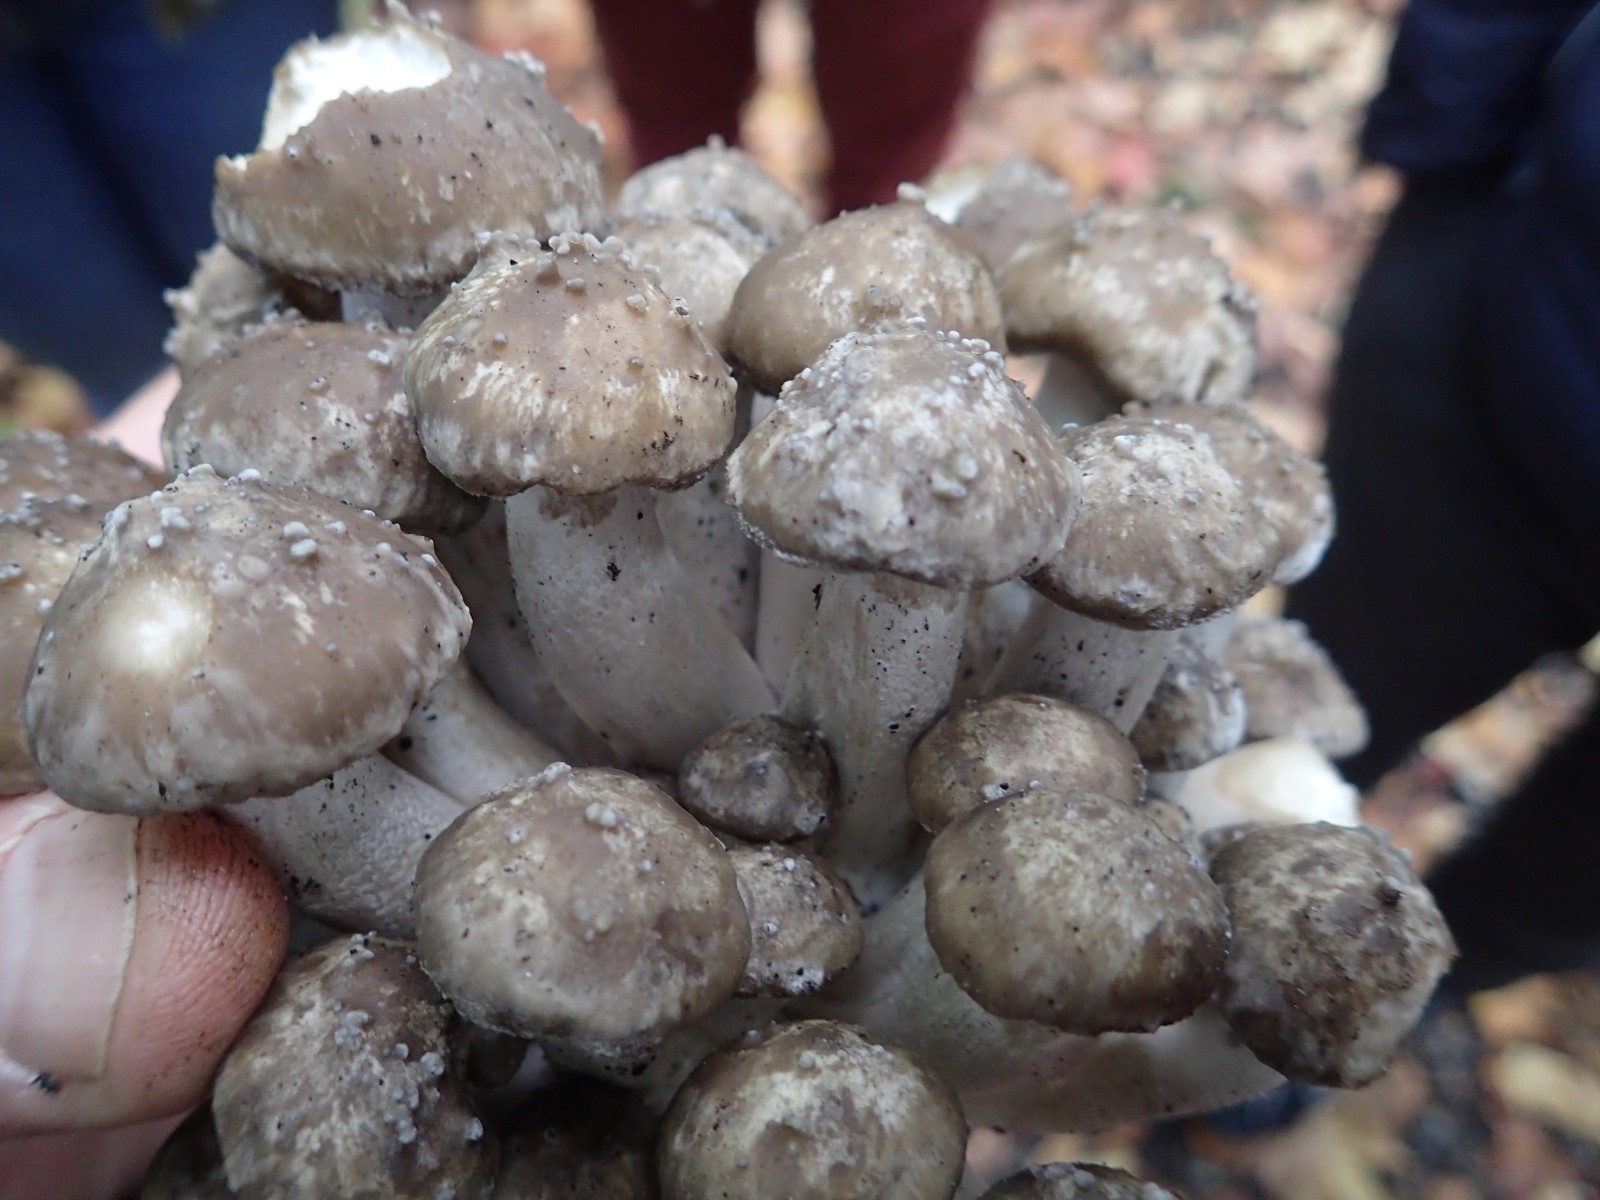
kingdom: Fungi
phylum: Basidiomycota
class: Agaricomycetes
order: Agaricales
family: Lyophyllaceae
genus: Lyophyllum
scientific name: Lyophyllum decastes
